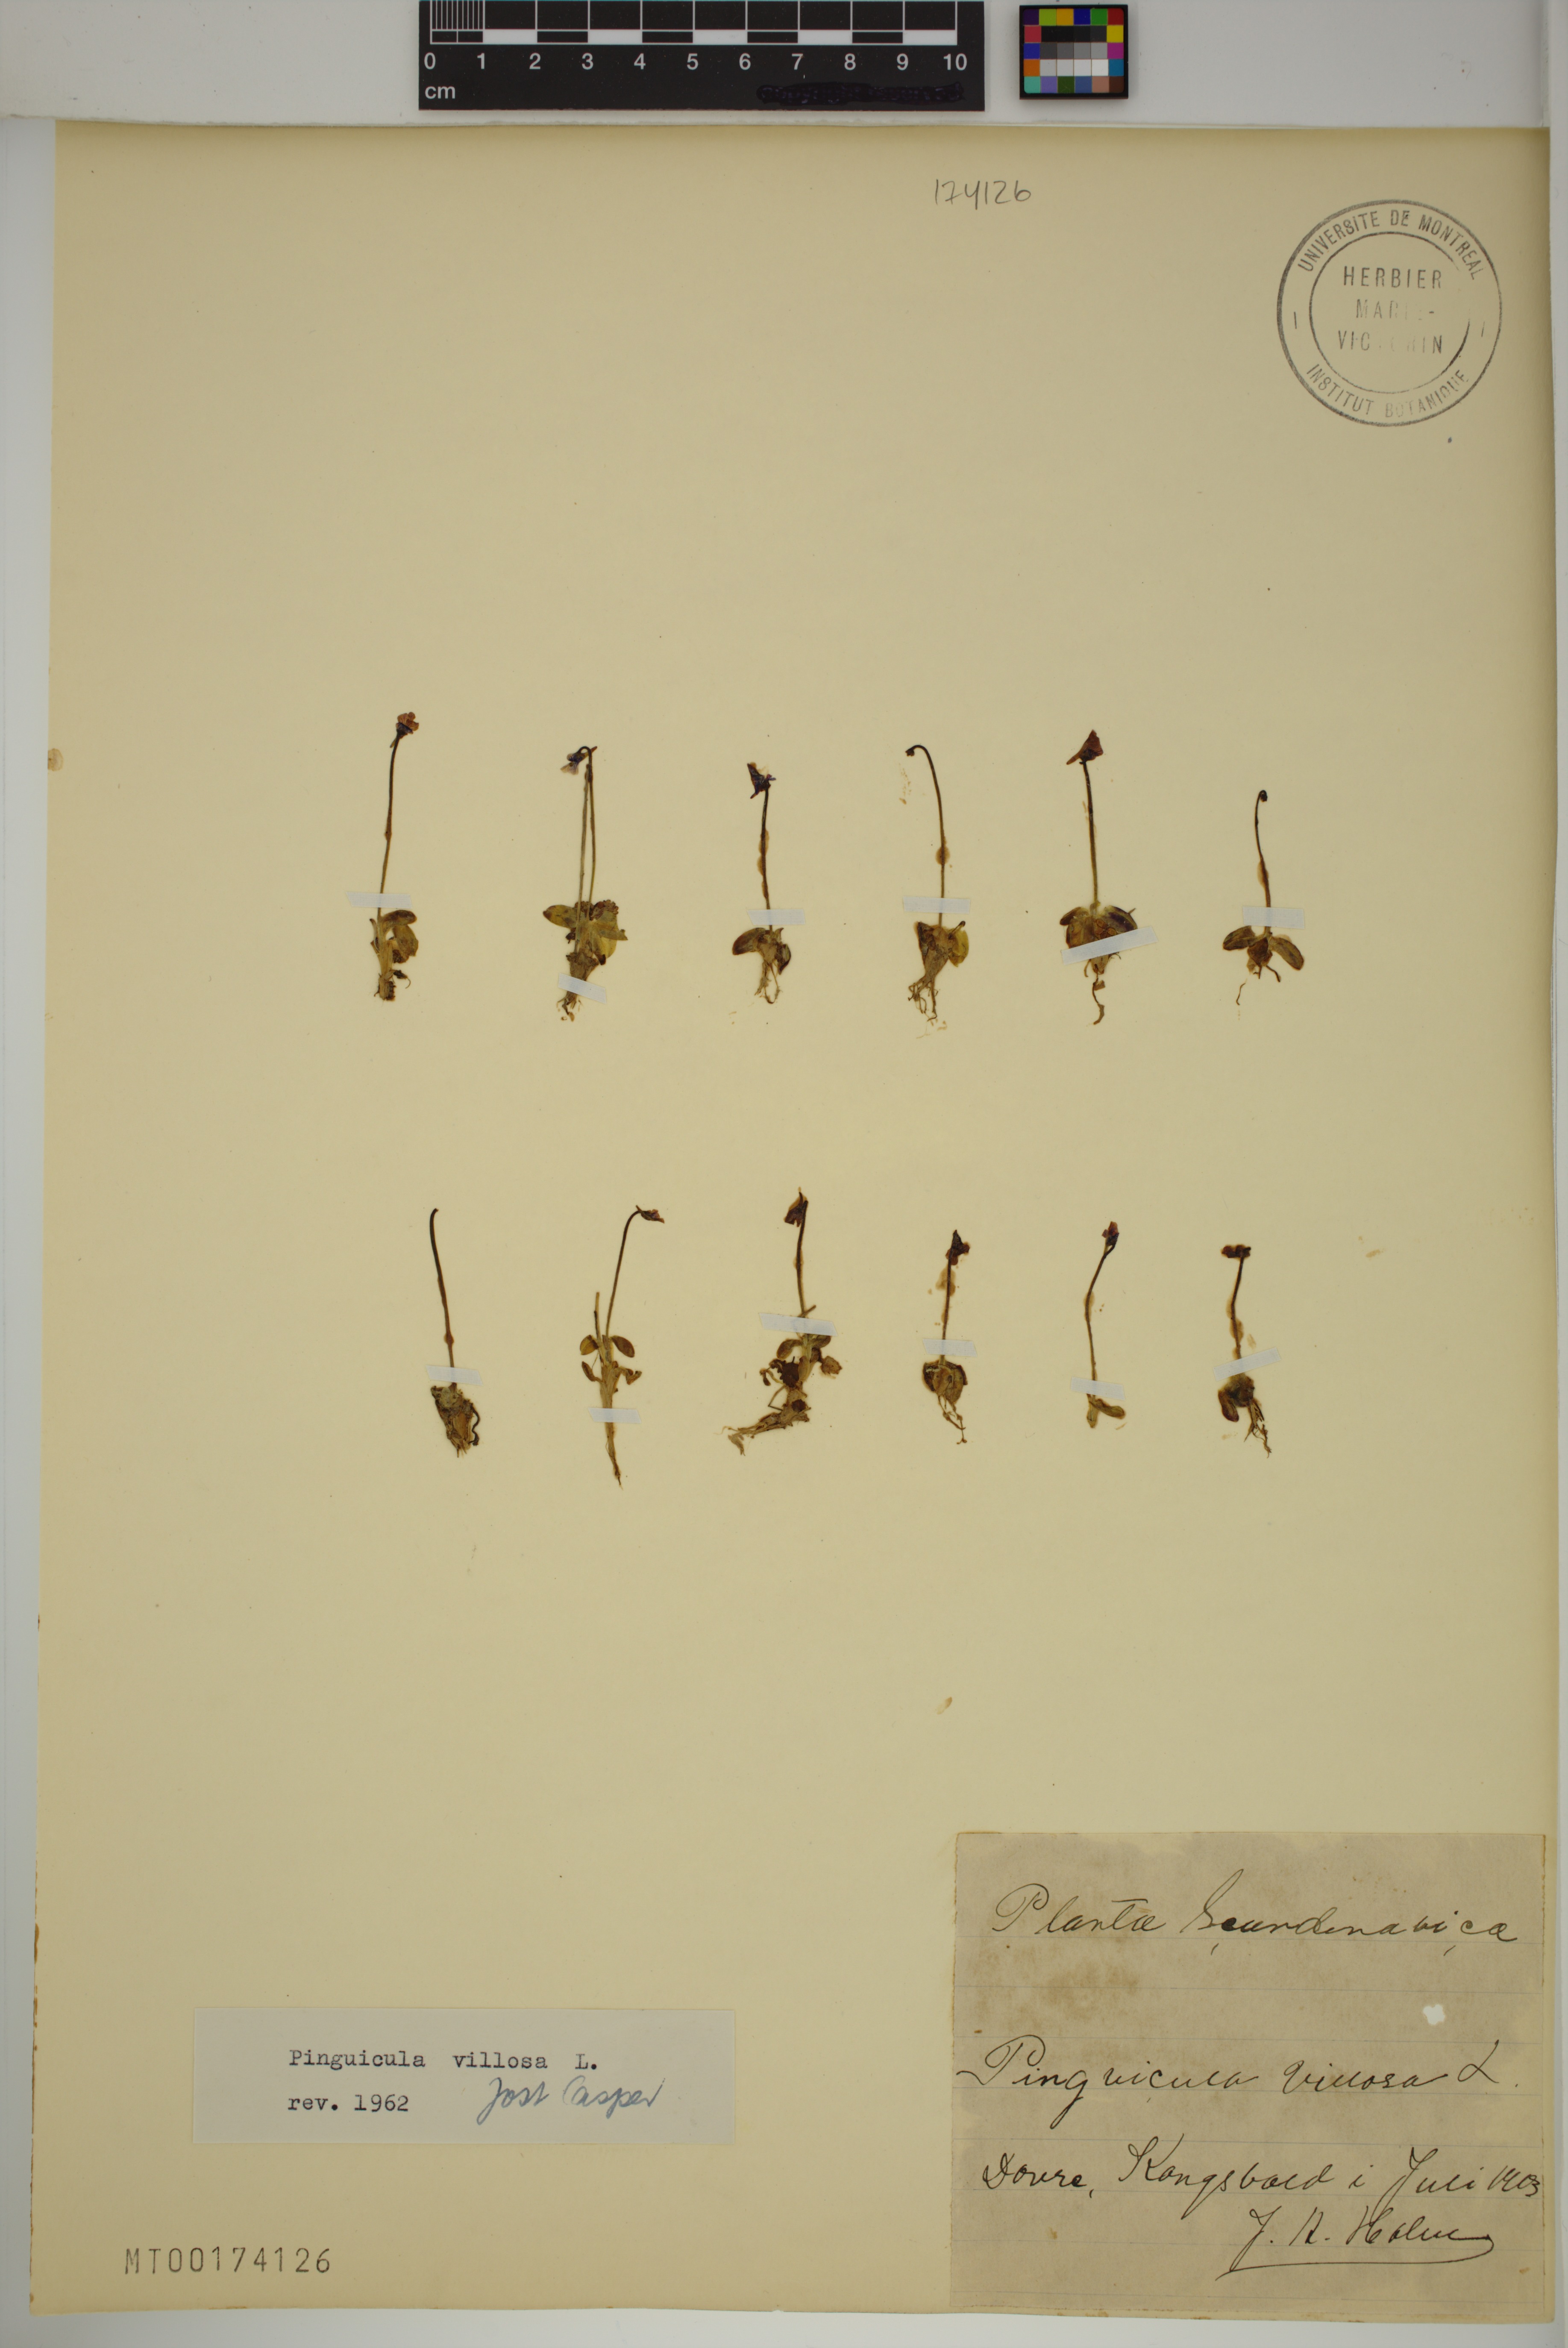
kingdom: Plantae
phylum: Tracheophyta
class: Magnoliopsida
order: Lamiales
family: Lentibulariaceae
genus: Pinguicula
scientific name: Pinguicula villosa
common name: Hairy butterwort
